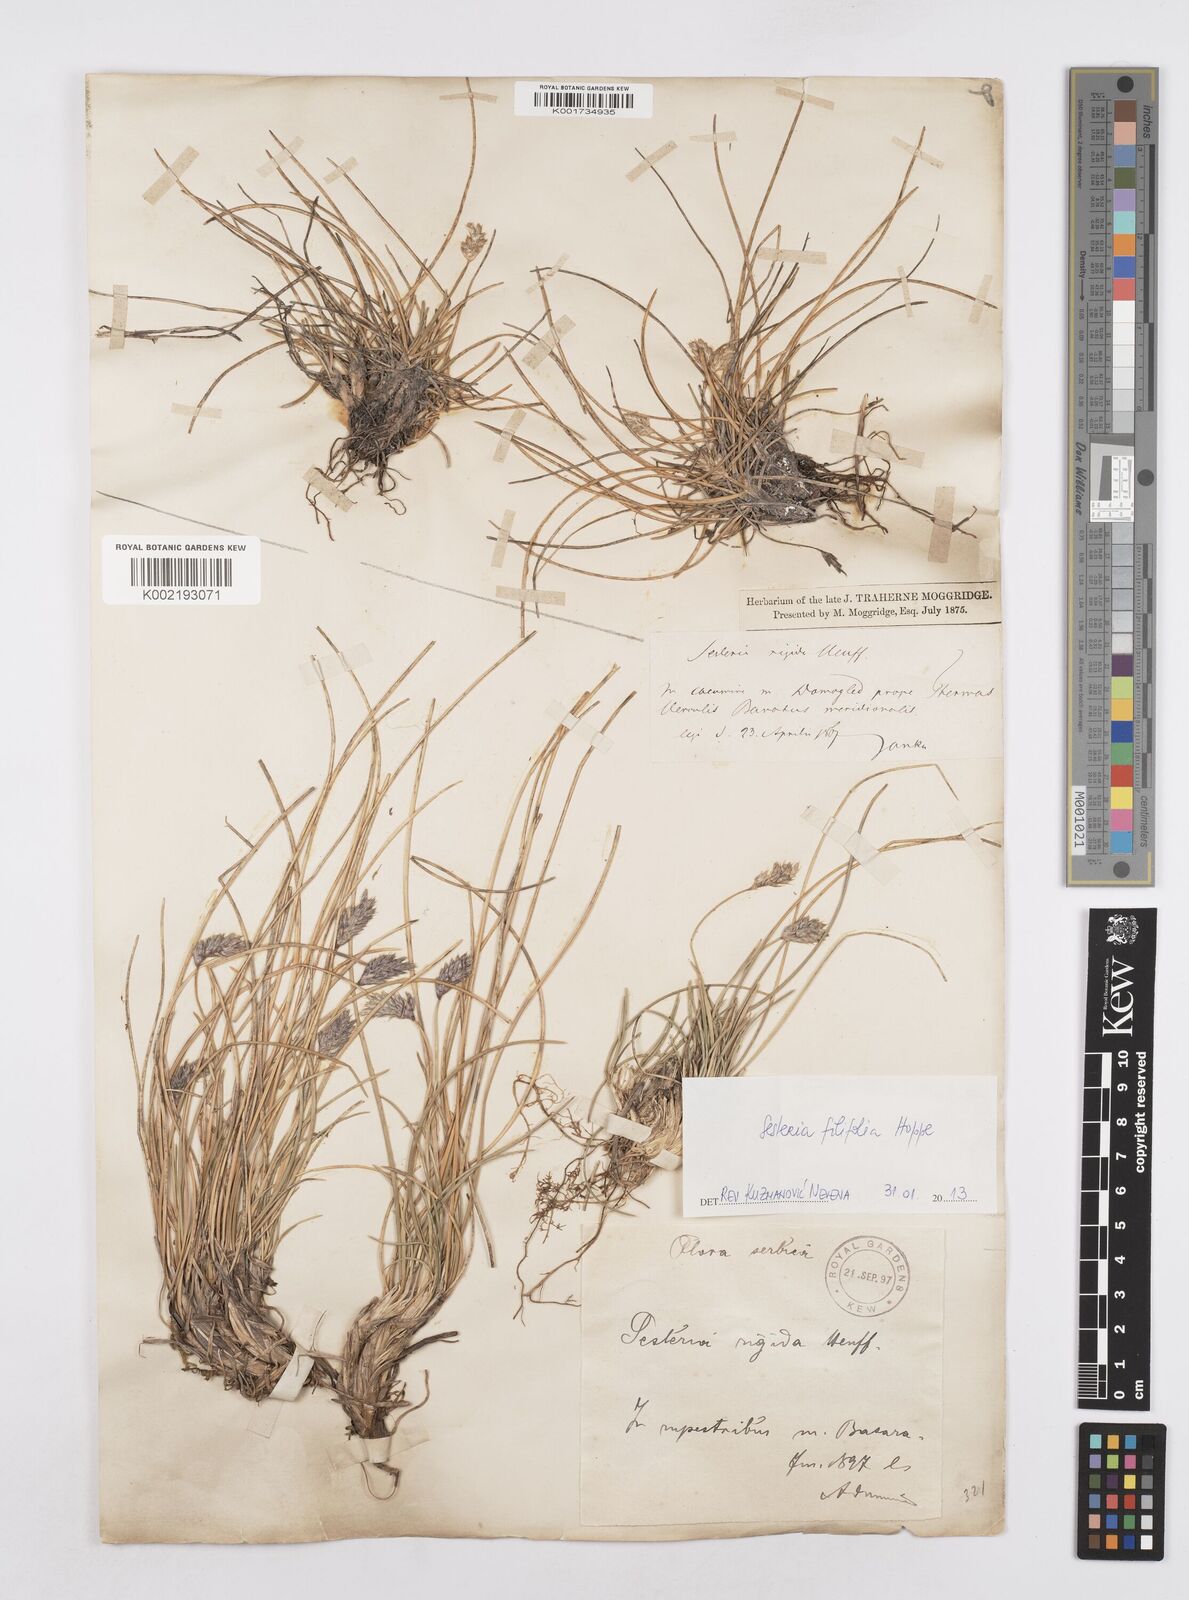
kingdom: Plantae
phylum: Tracheophyta
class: Liliopsida
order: Poales
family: Poaceae
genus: Sesleria
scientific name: Sesleria rigida
